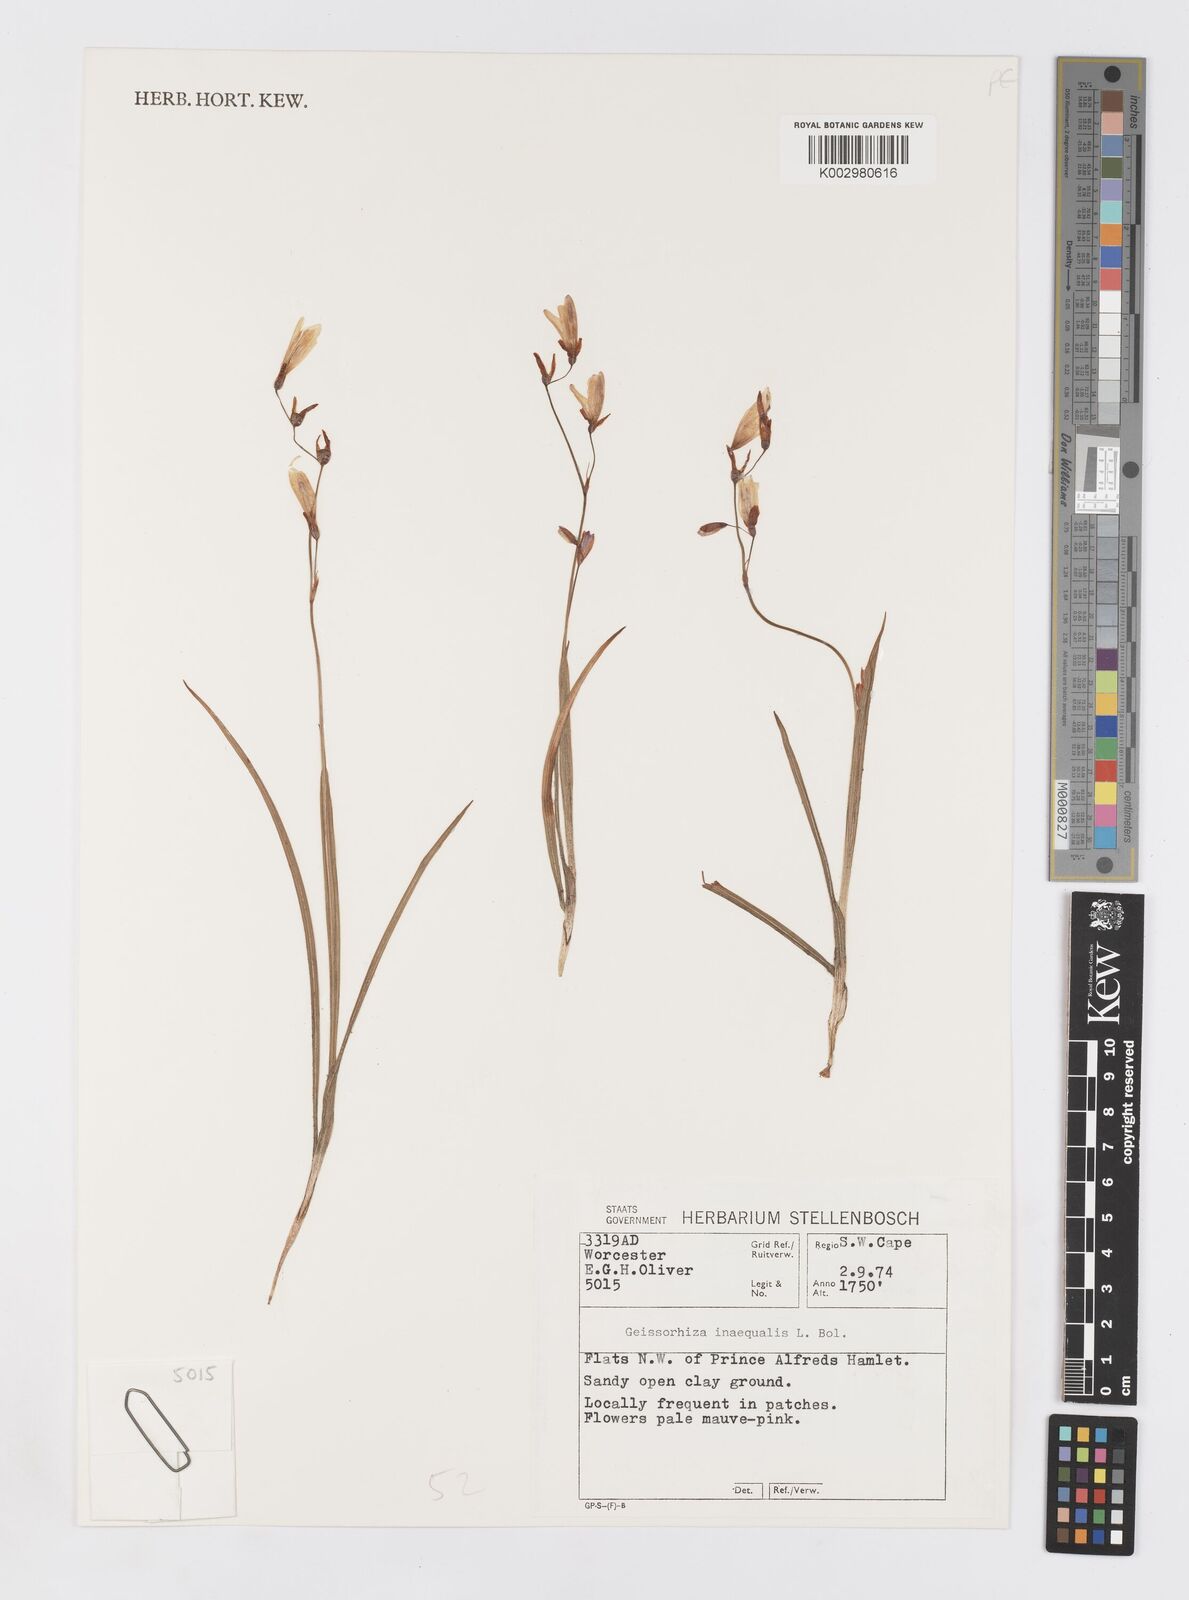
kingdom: Plantae
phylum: Tracheophyta
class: Liliopsida
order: Asparagales
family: Iridaceae
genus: Geissorhiza
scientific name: Geissorhiza inaequalis
